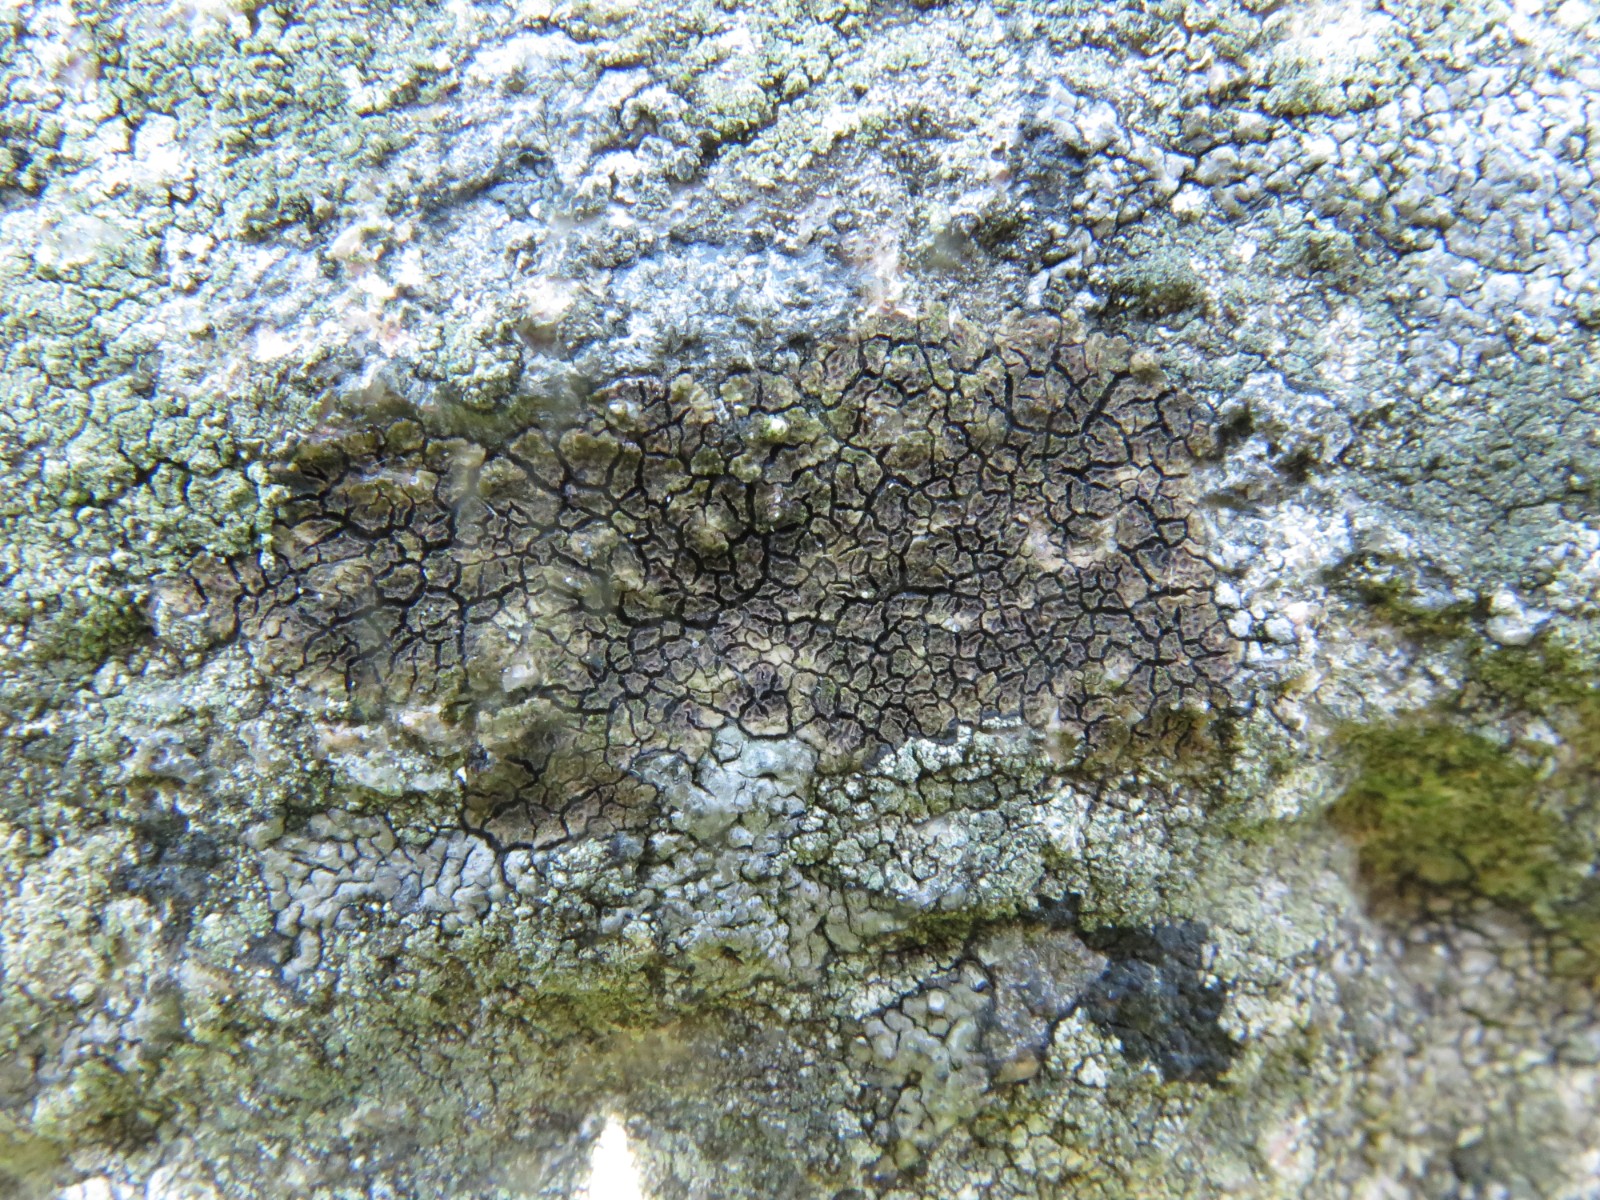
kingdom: Fungi
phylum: Ascomycota
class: Lecanoromycetes
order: Acarosporales
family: Acarosporaceae
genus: Acarospora
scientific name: Acarospora fuscata
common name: brun småsporelav
